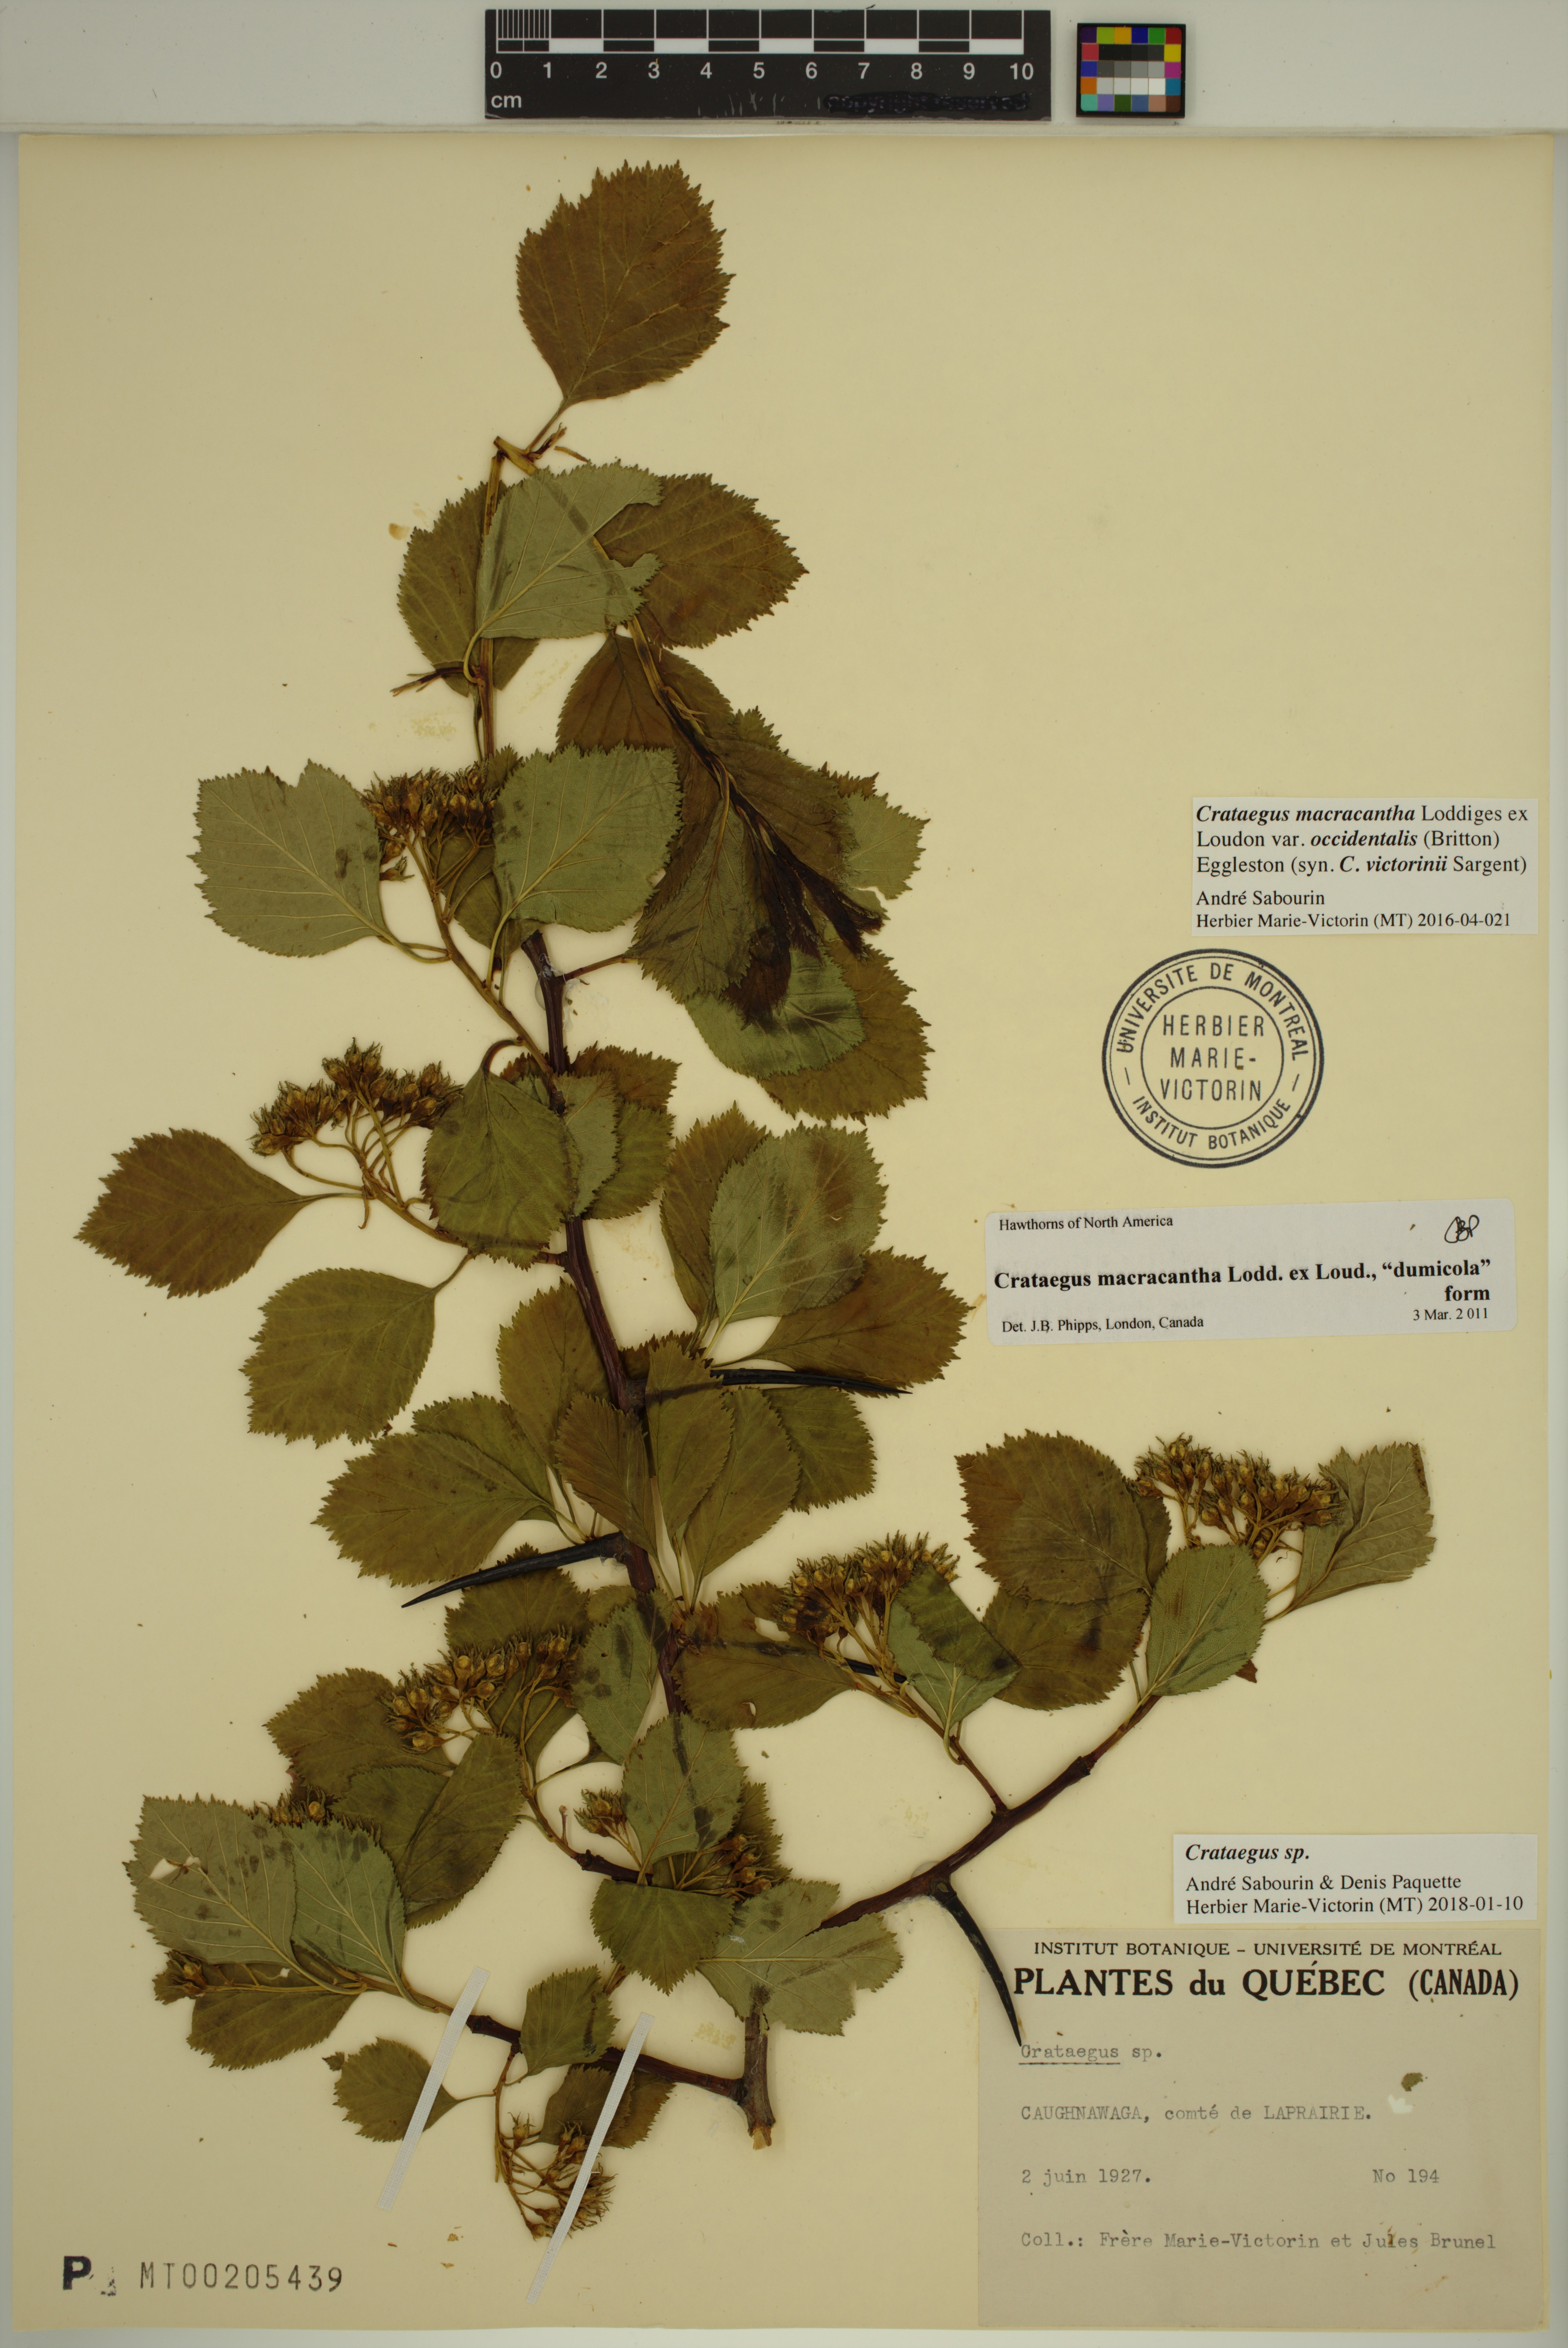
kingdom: Plantae
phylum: Tracheophyta
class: Magnoliopsida
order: Rosales
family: Rosaceae
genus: Crataegus
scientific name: Crataegus macracantha
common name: Large-thorn hawthorn
